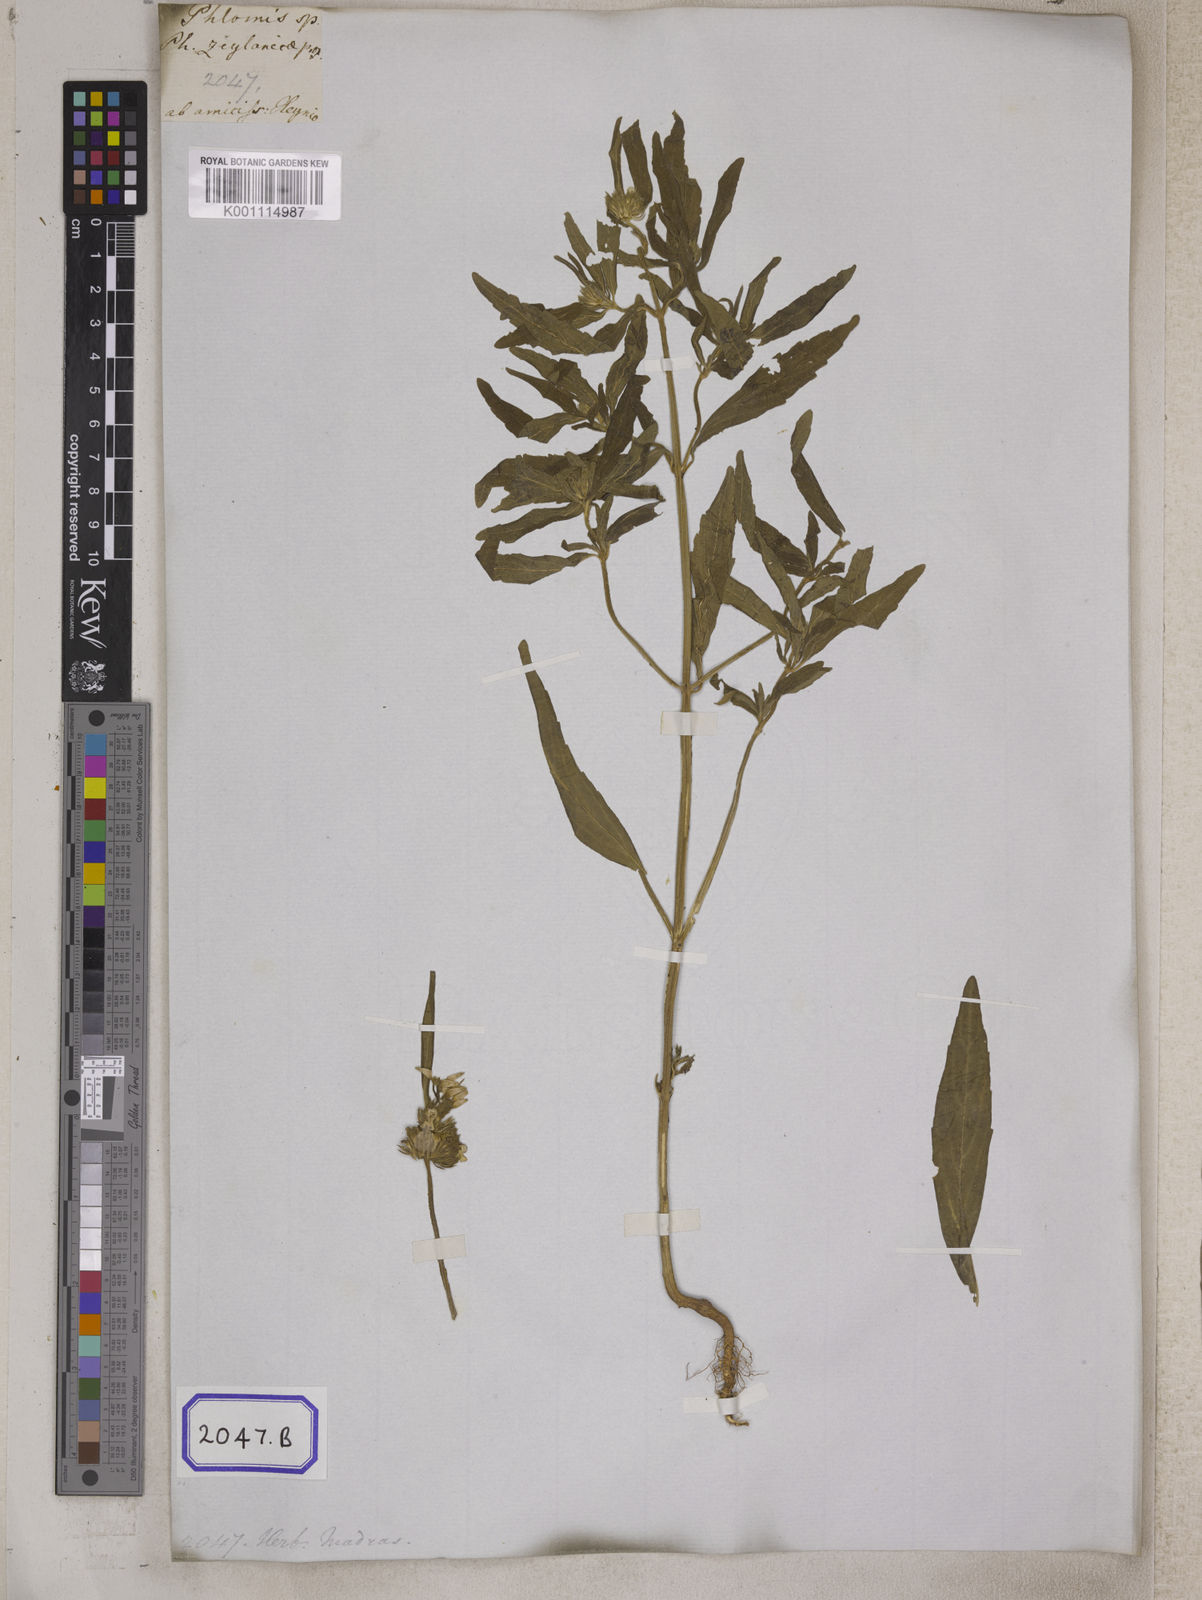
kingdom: Plantae
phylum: Tracheophyta
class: Magnoliopsida
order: Lamiales
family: Lamiaceae
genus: Leucas
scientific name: Leucas
